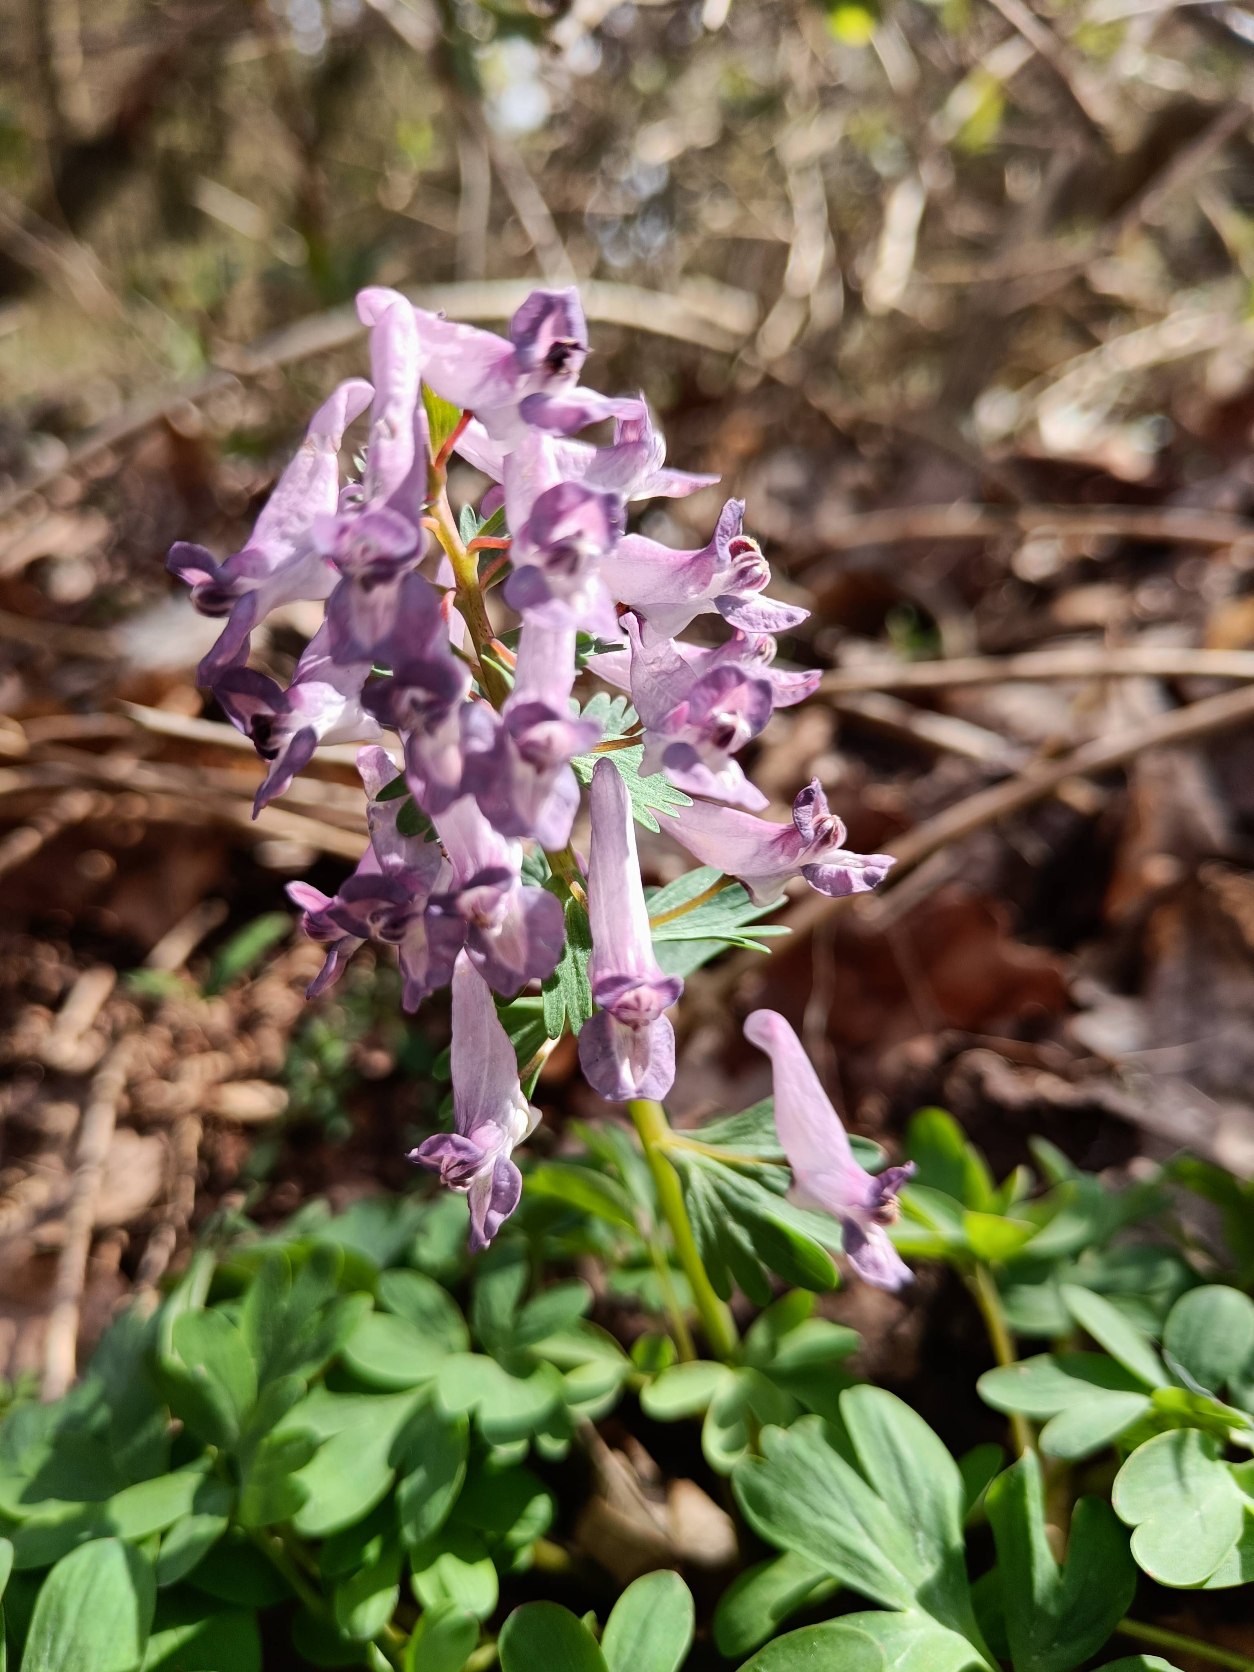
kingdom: Plantae
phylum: Tracheophyta
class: Magnoliopsida
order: Ranunculales
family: Papaveraceae
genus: Corydalis
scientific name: Corydalis solida
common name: Langstilket lærkespore
